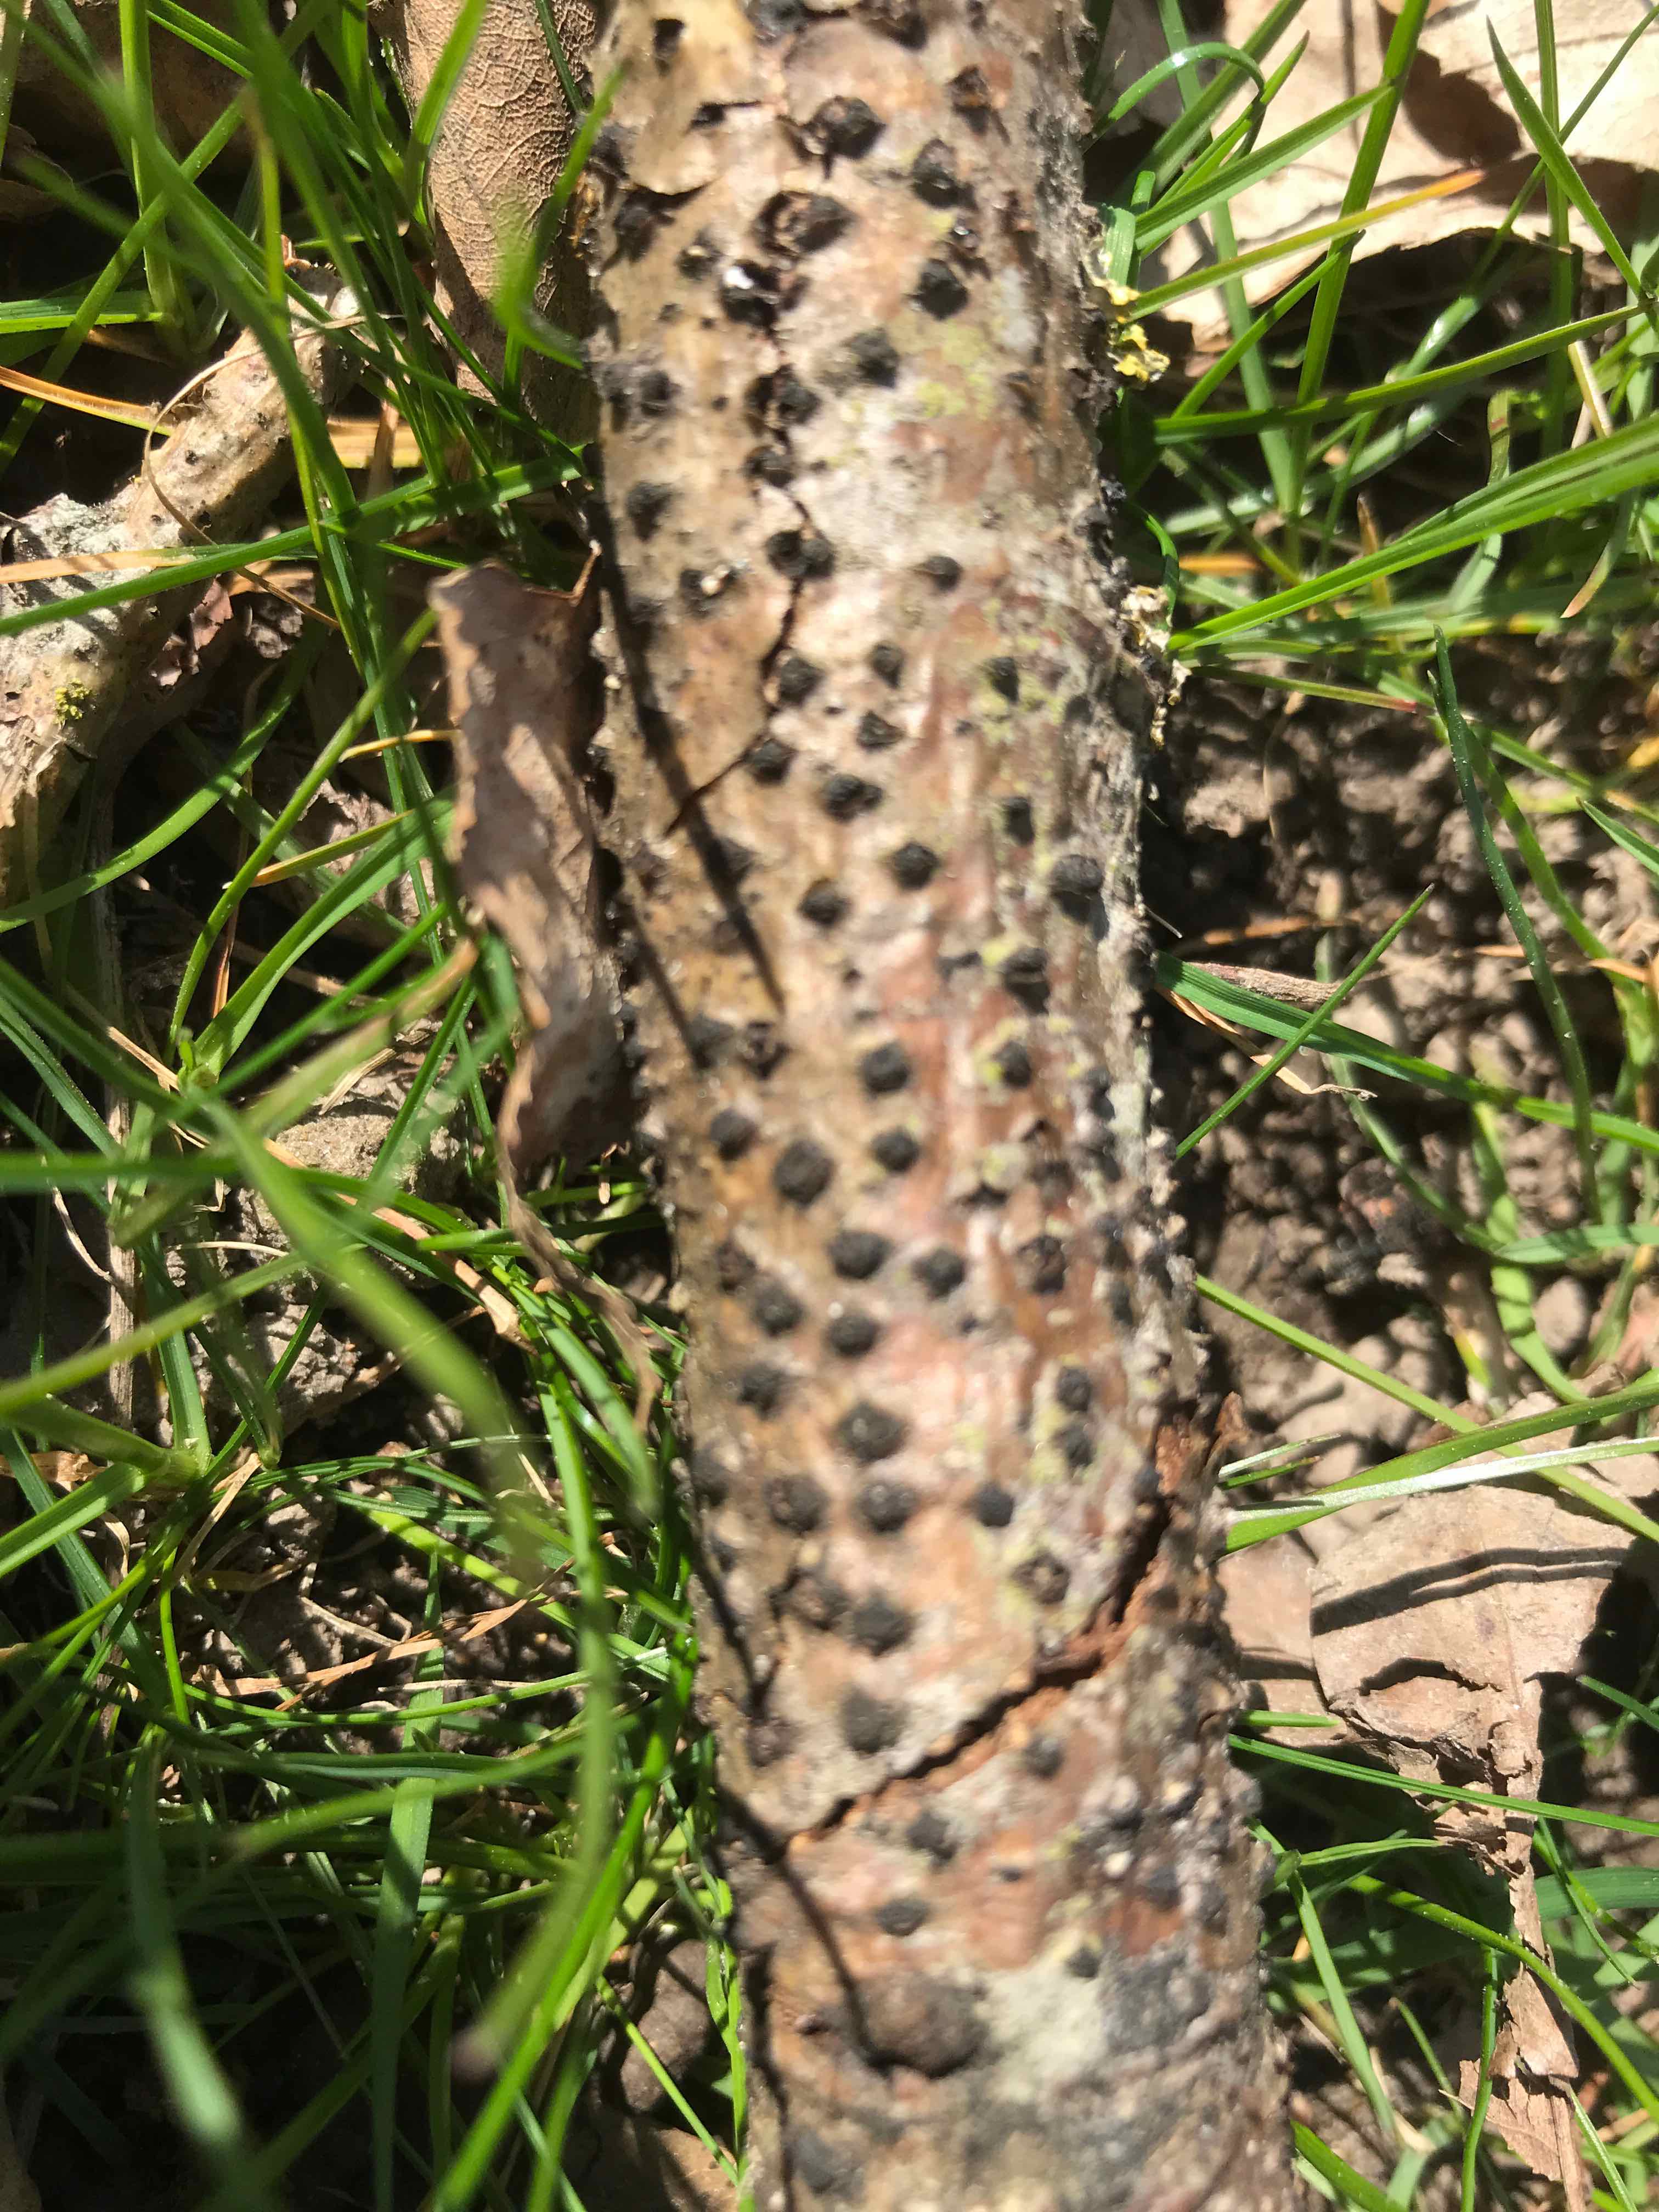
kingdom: Fungi
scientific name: Fungi
